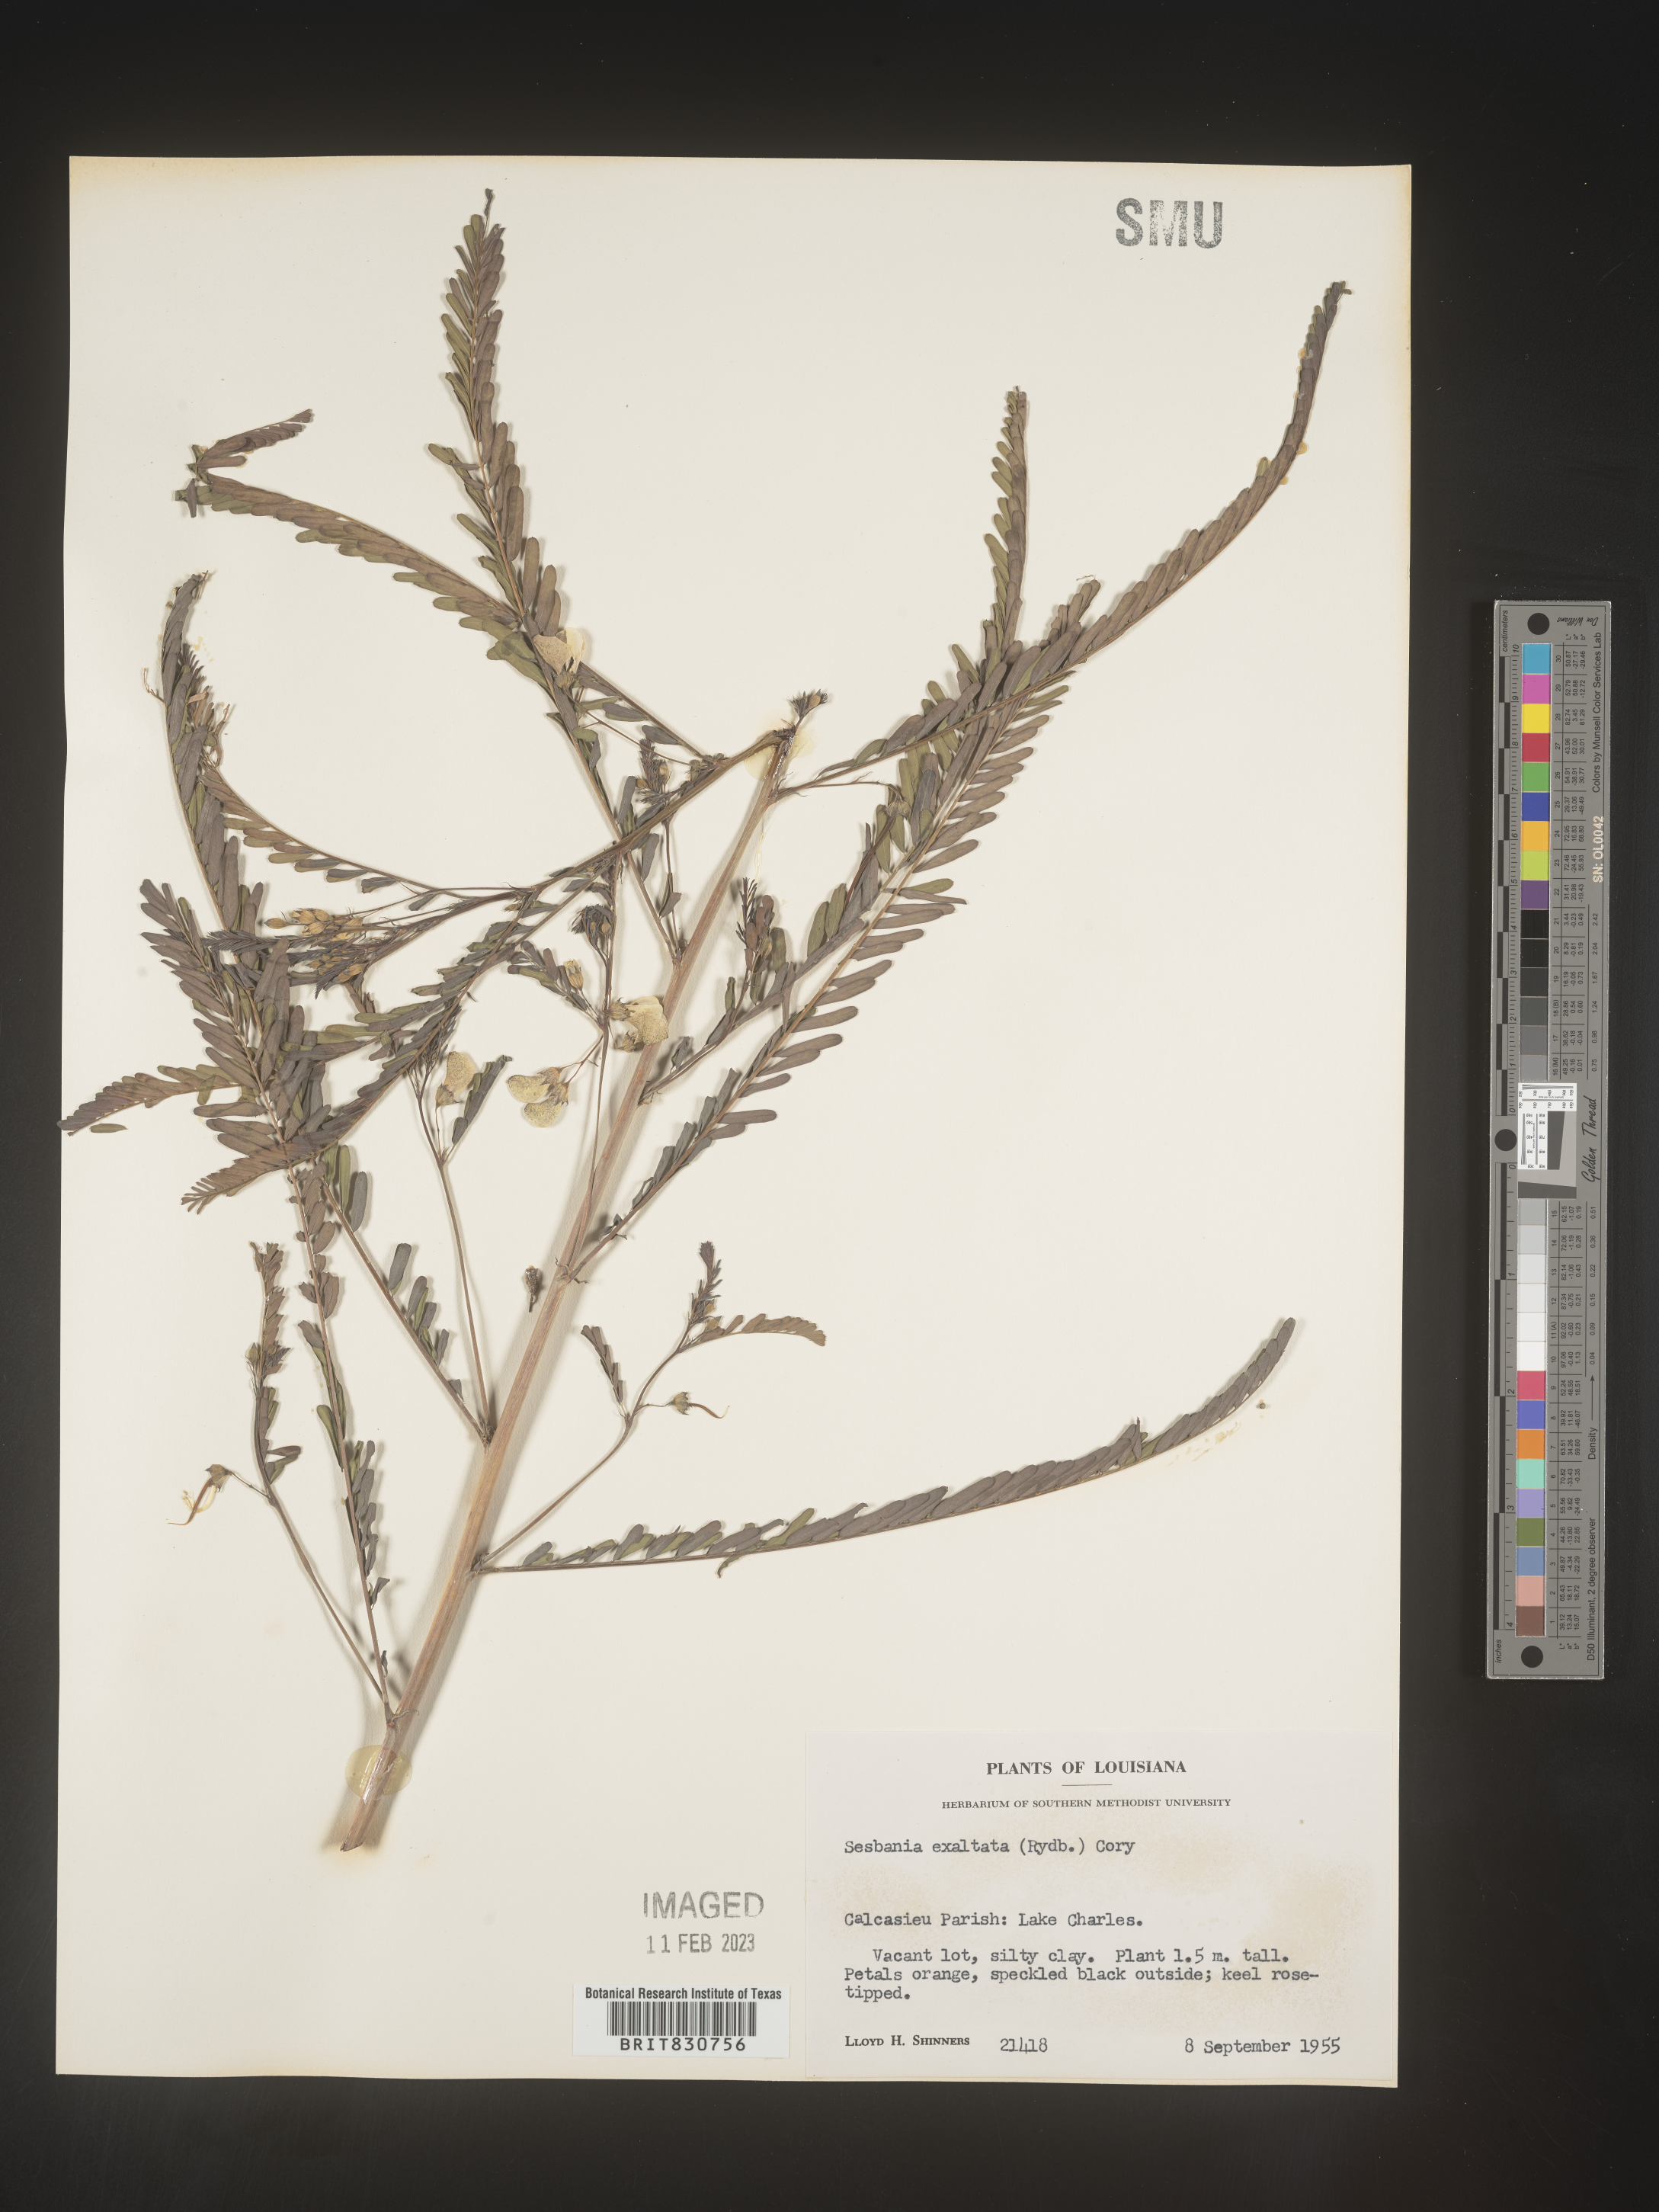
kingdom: Plantae
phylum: Tracheophyta
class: Magnoliopsida
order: Fabales
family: Fabaceae
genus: Sesbania
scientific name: Sesbania vesicaria
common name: Bagpod
